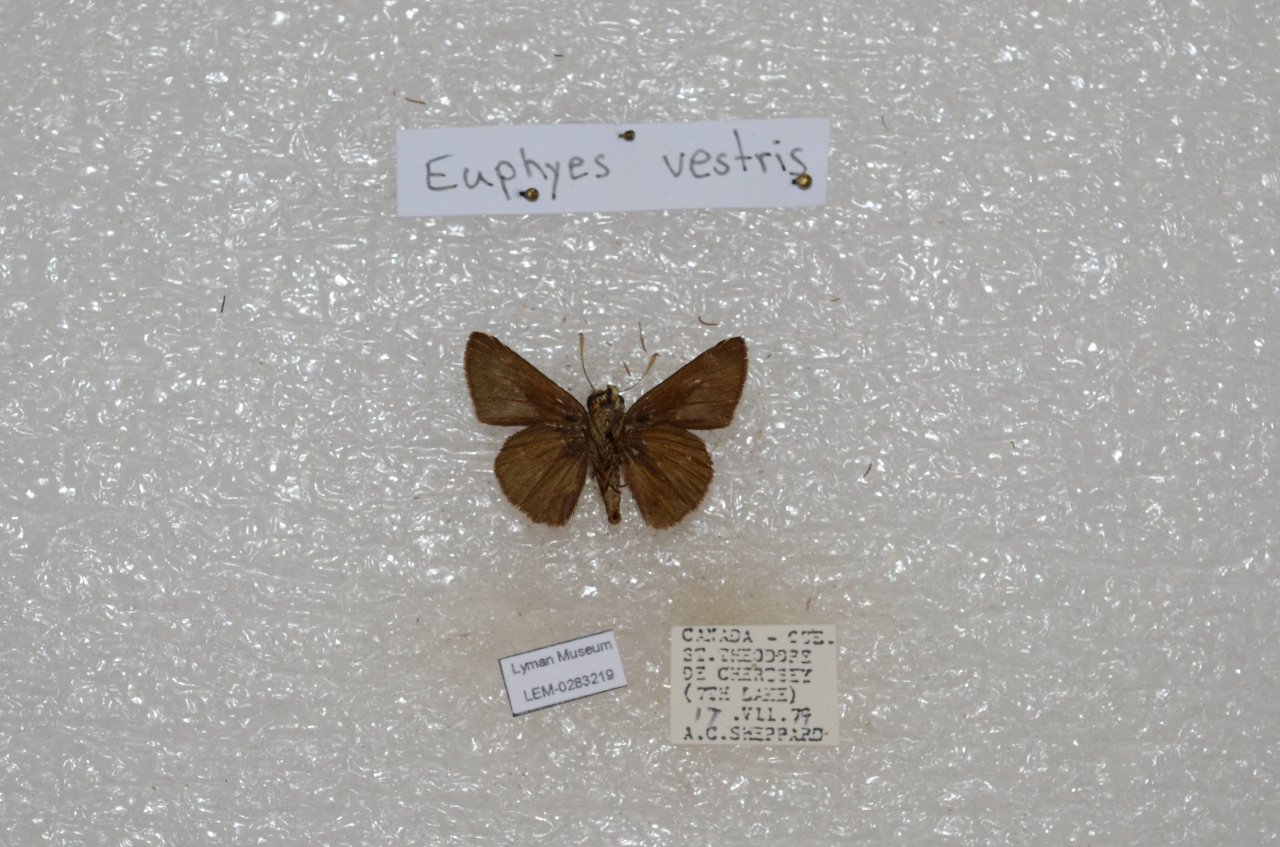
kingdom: Animalia
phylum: Arthropoda
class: Insecta
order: Lepidoptera
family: Hesperiidae
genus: Euphyes
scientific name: Euphyes vestris
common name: Dun Skipper
